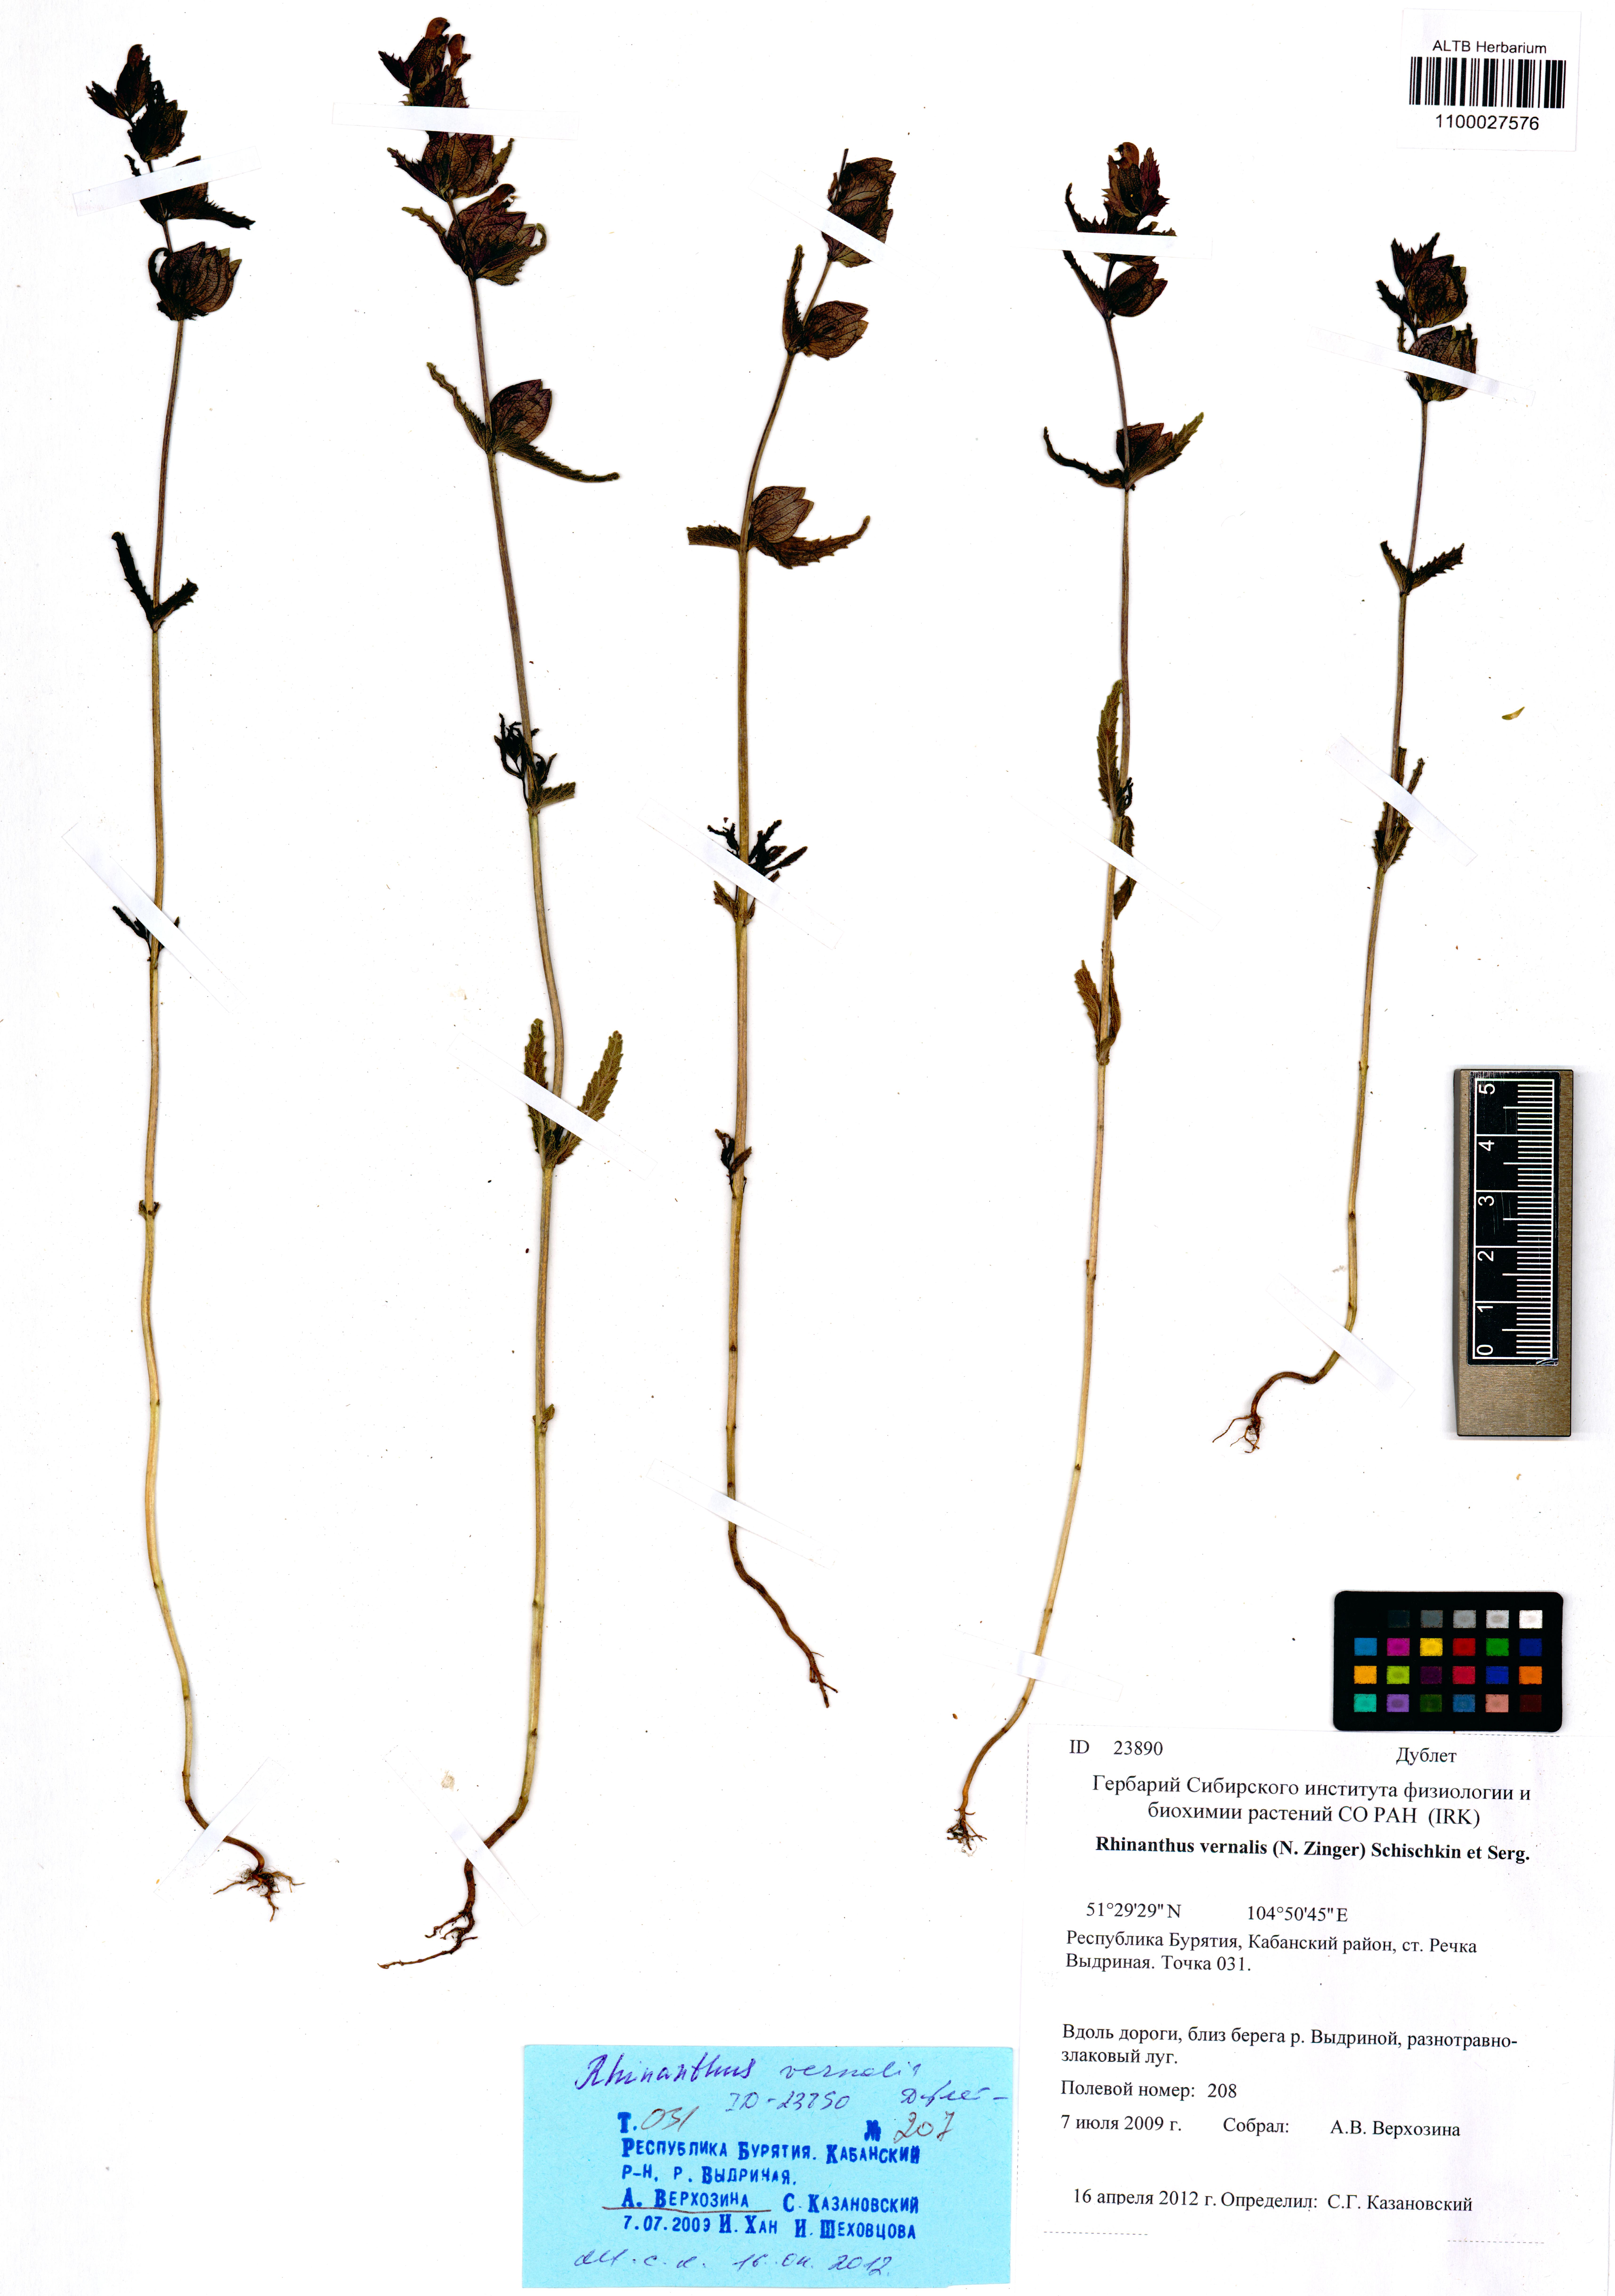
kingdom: Plantae
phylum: Tracheophyta
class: Magnoliopsida
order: Lamiales
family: Orobanchaceae
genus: Rhinanthus
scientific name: Rhinanthus serotinus
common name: Late-flowering yellow rattle
